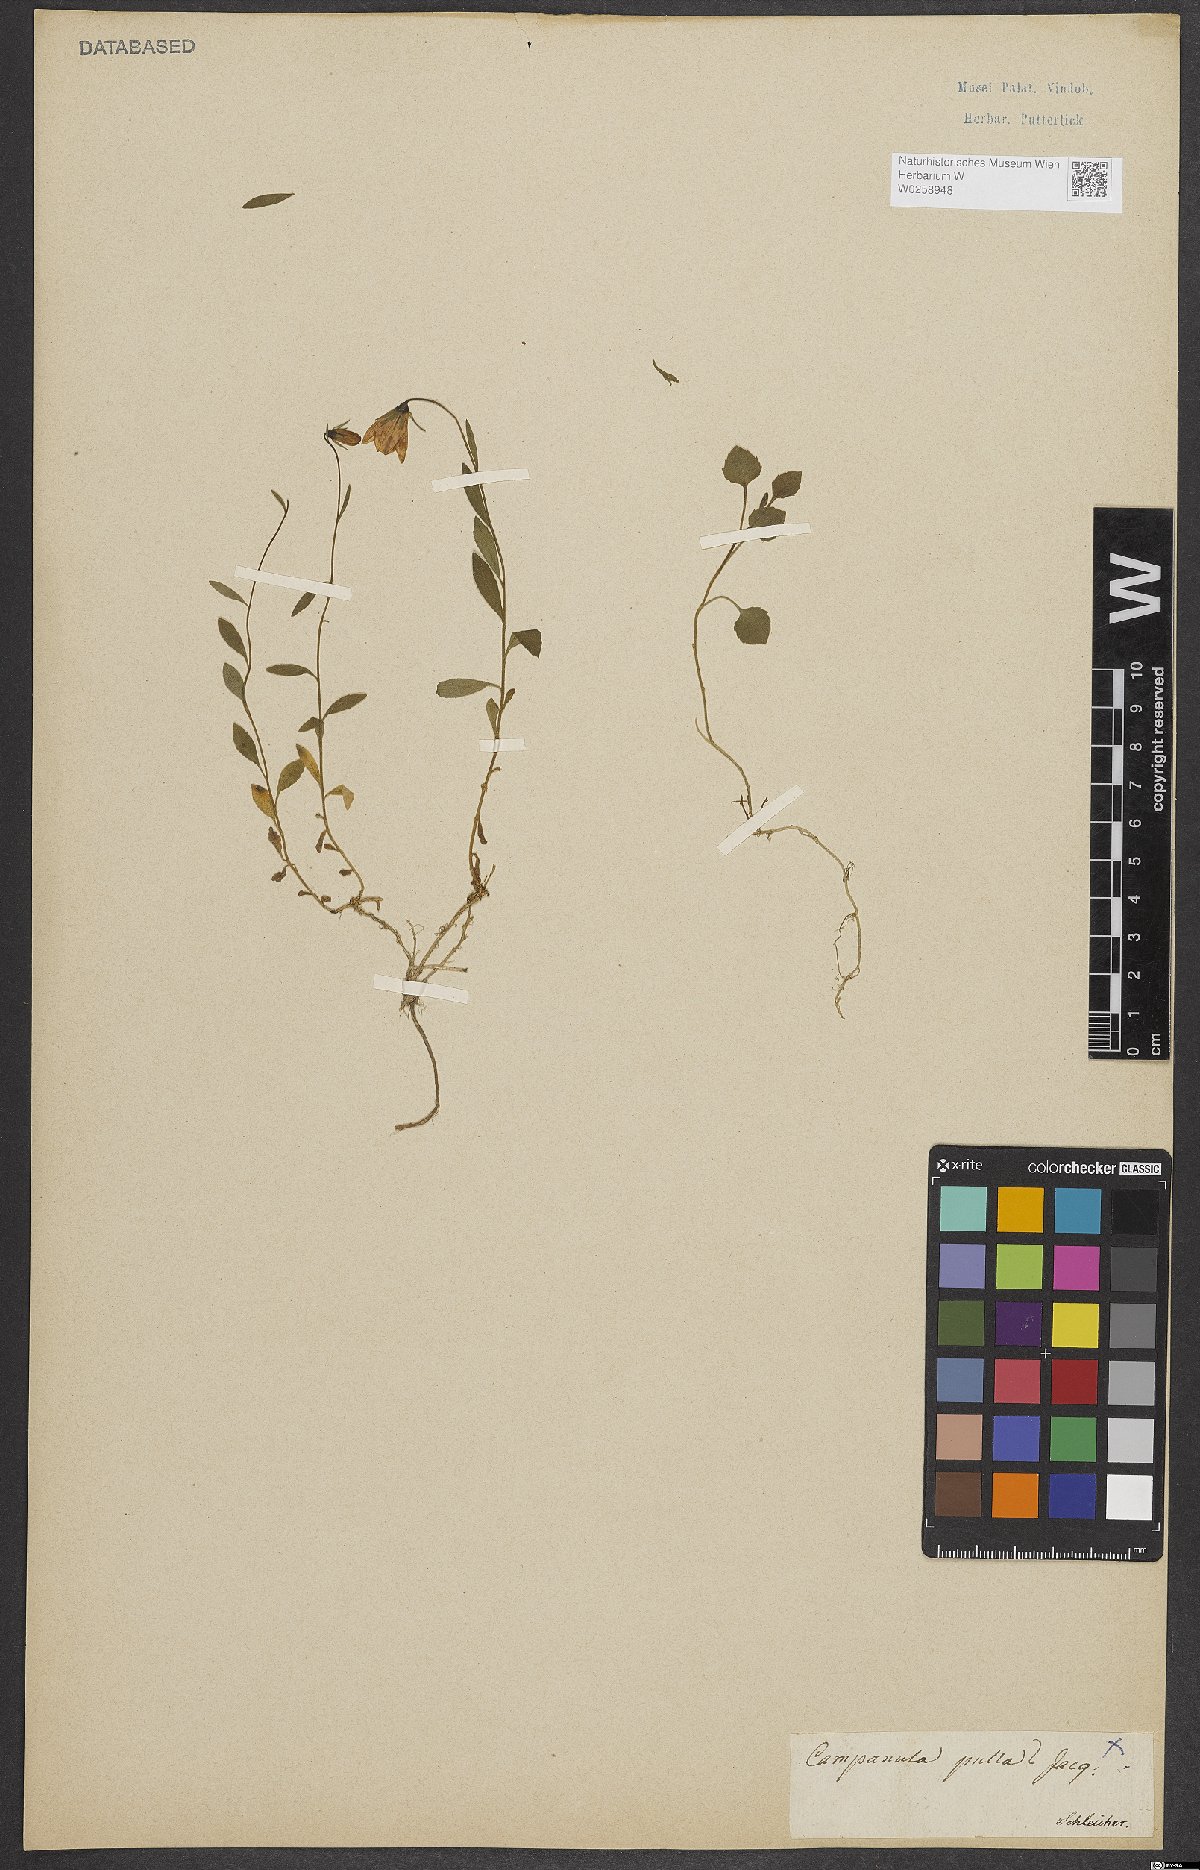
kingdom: Plantae
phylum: Tracheophyta
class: Magnoliopsida
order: Asterales
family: Campanulaceae
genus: Campanula
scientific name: Campanula pulla
